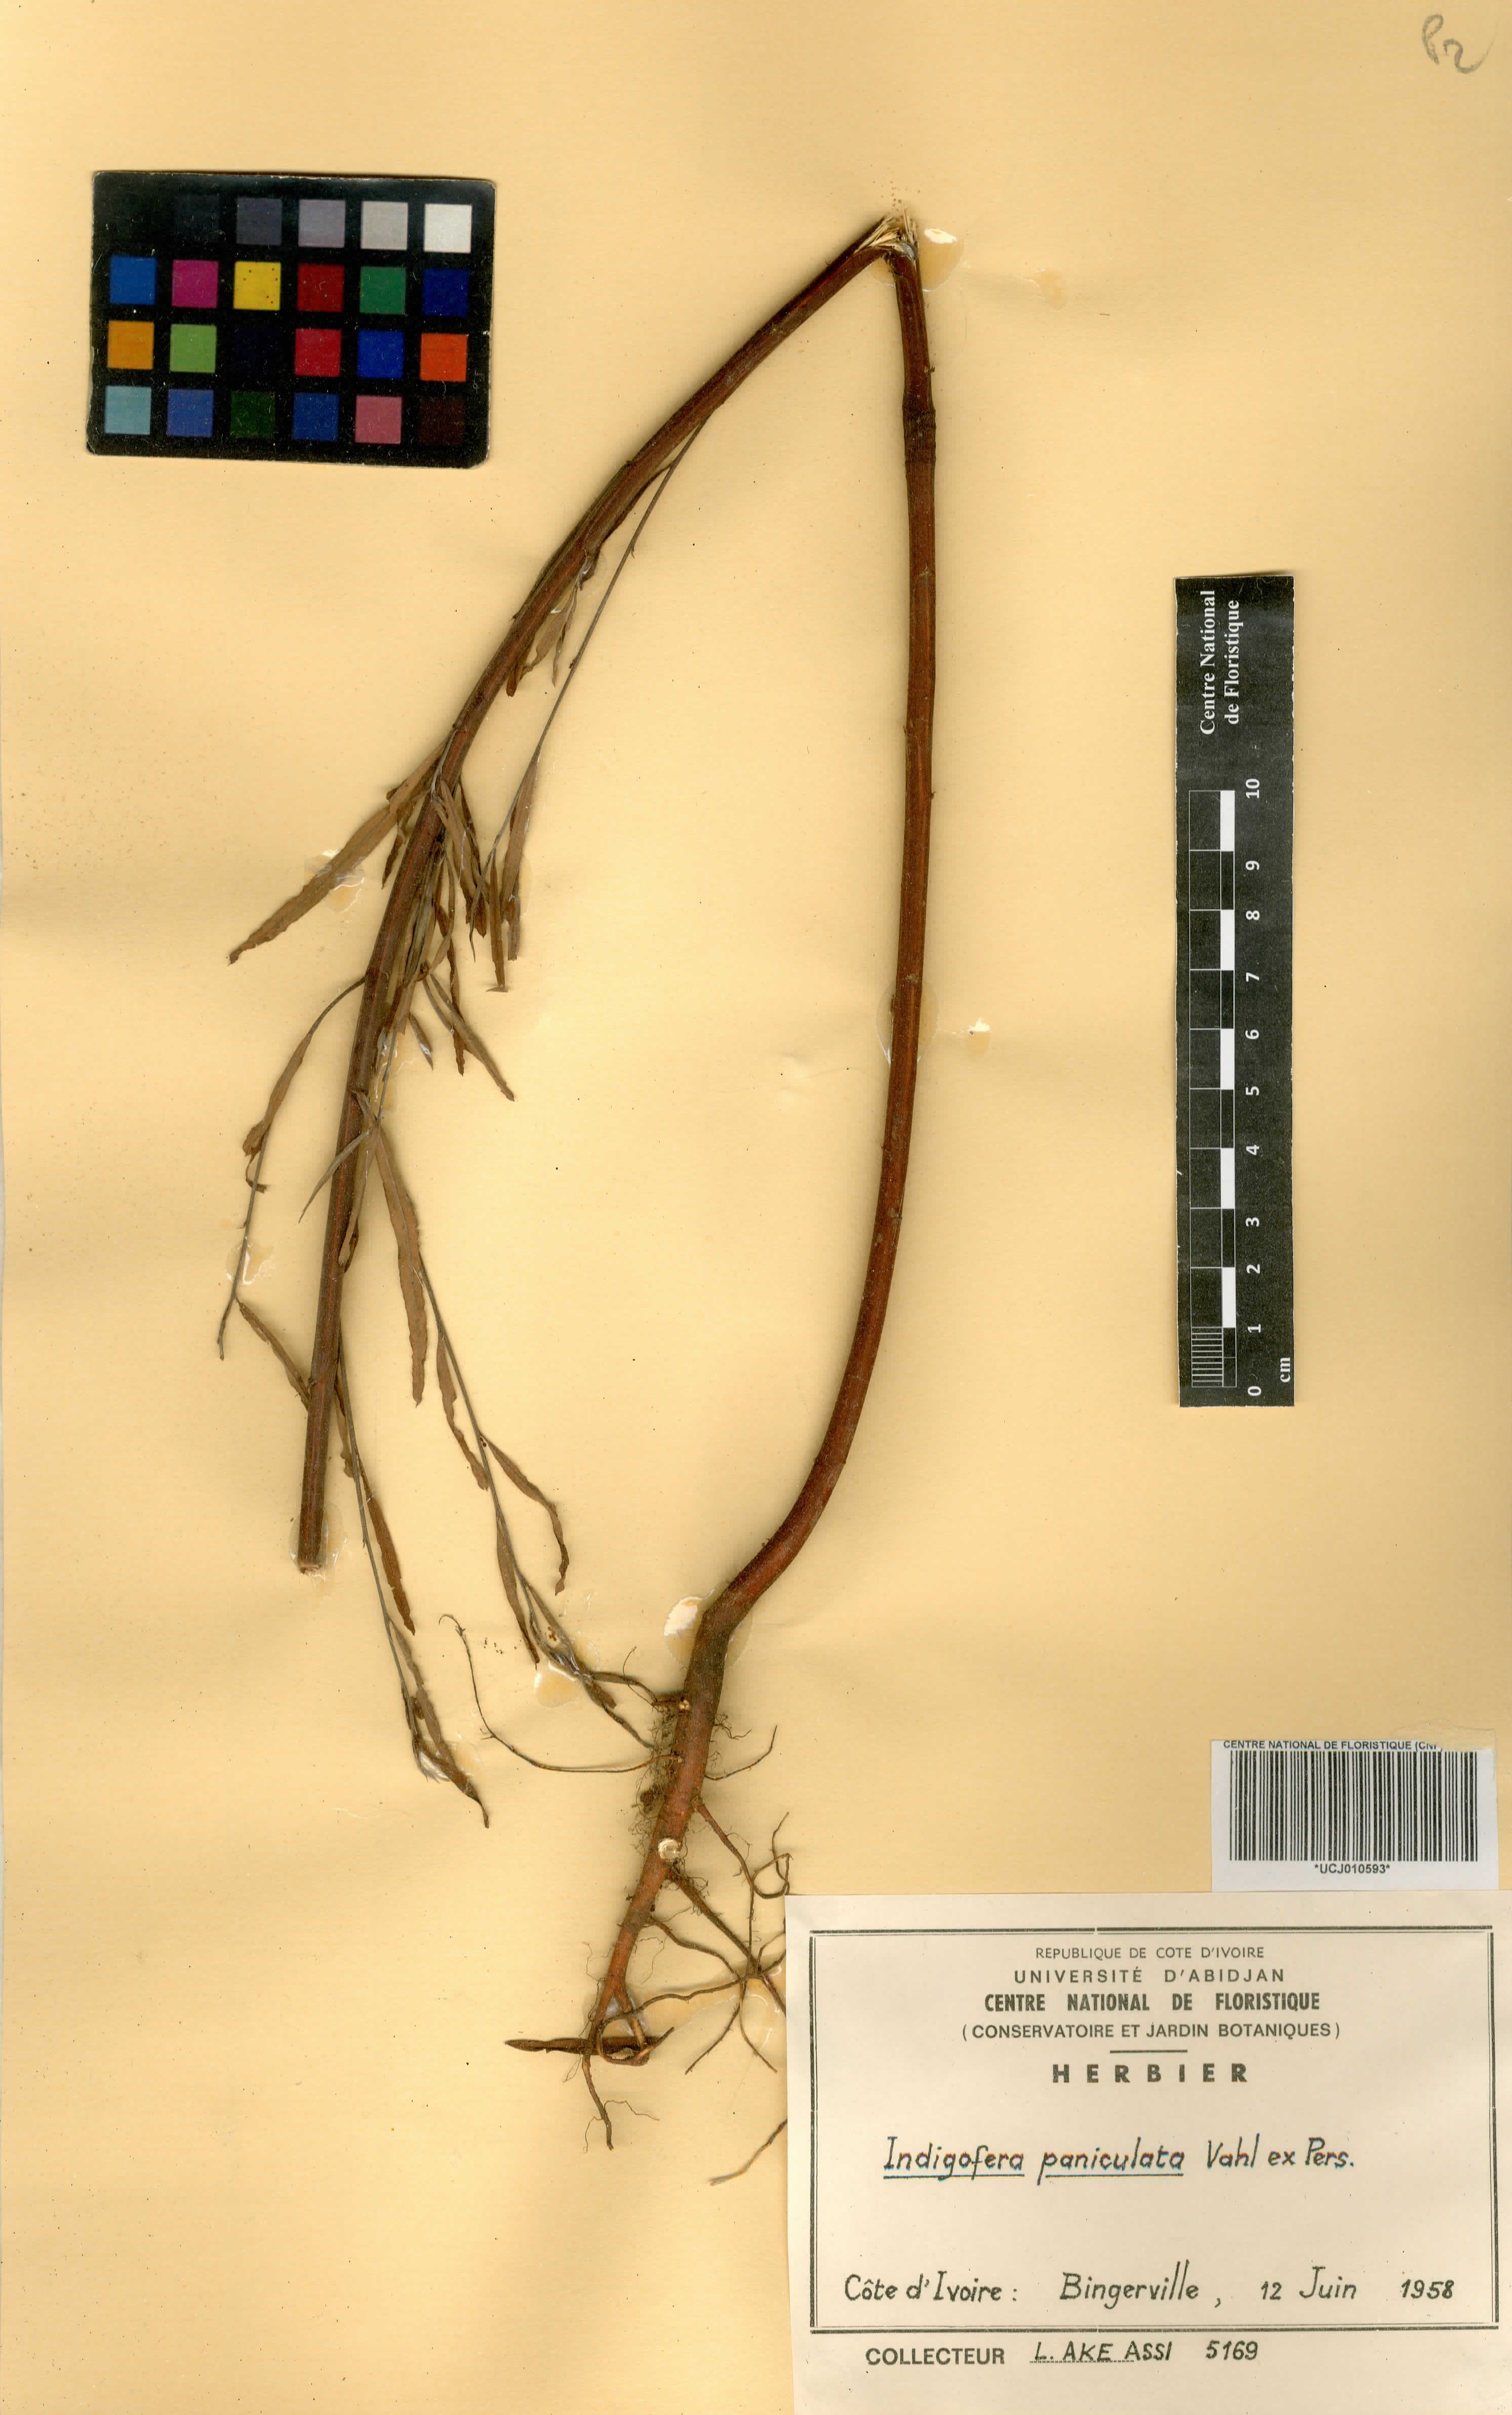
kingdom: Plantae
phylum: Tracheophyta
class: Magnoliopsida
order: Fabales
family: Fabaceae
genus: Indigofera
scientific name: Indigofera paniculata
